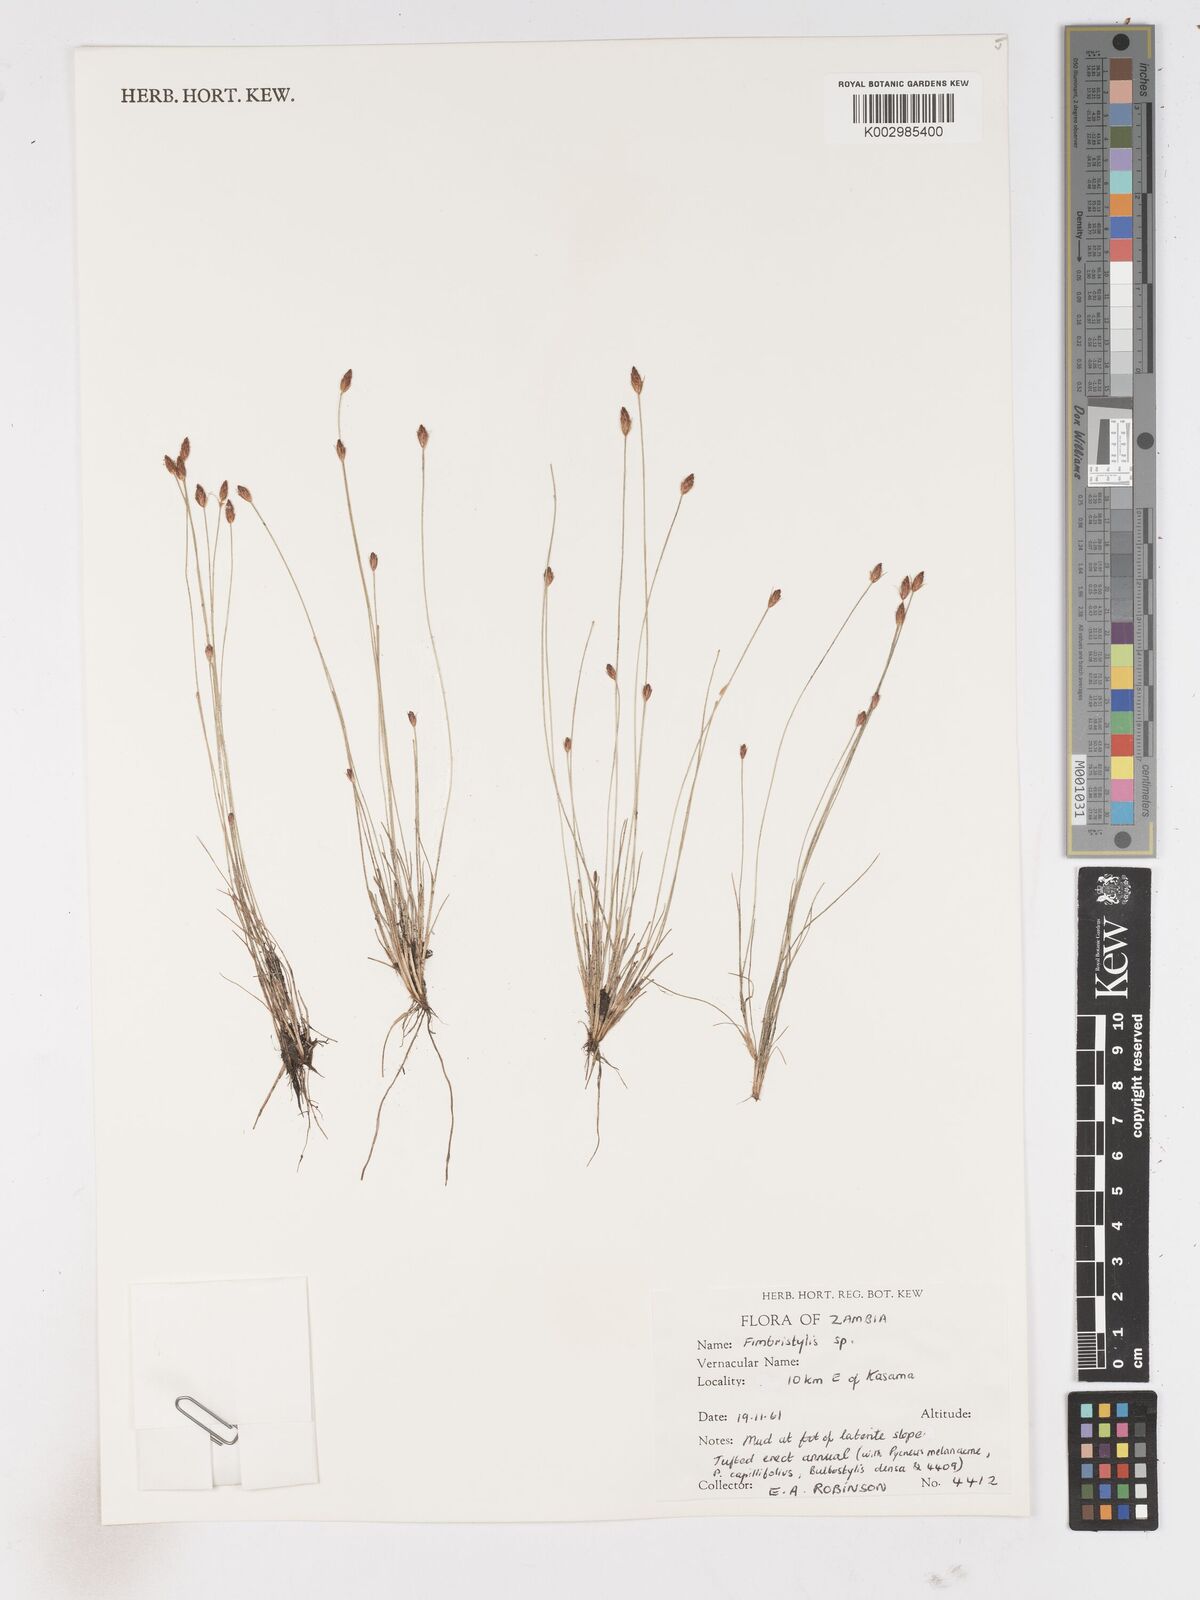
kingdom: Plantae
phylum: Tracheophyta
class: Liliopsida
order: Poales
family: Cyperaceae
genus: Fimbristylis
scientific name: Fimbristylis
